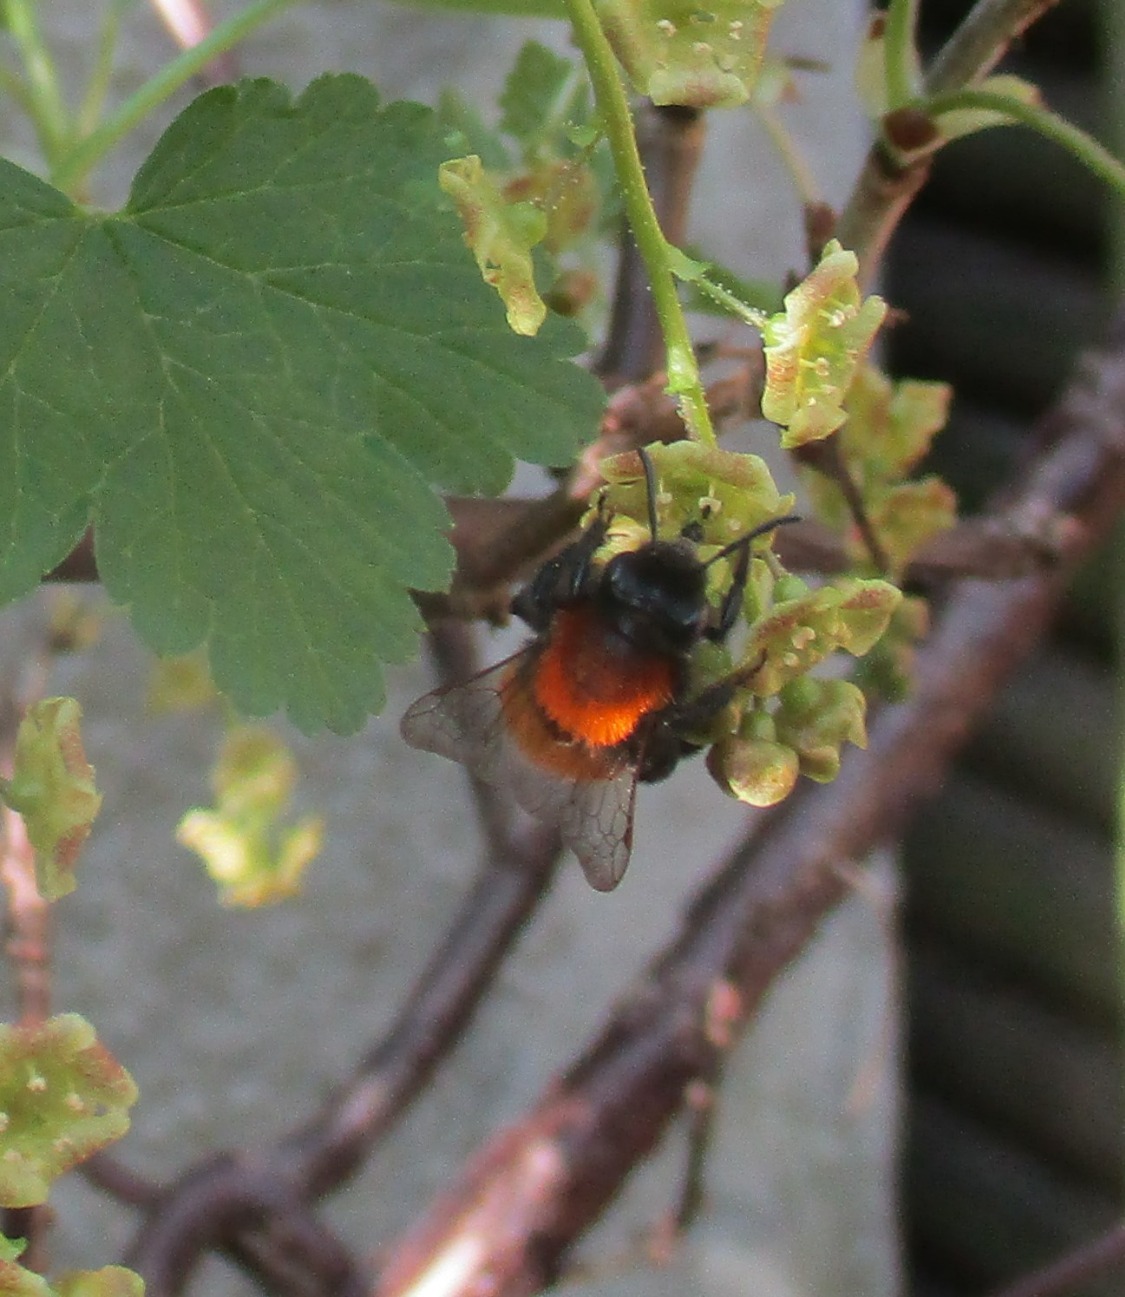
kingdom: Animalia
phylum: Arthropoda
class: Insecta
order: Hymenoptera
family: Andrenidae
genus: Andrena
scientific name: Andrena fulva
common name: Rødpelset jordbi
